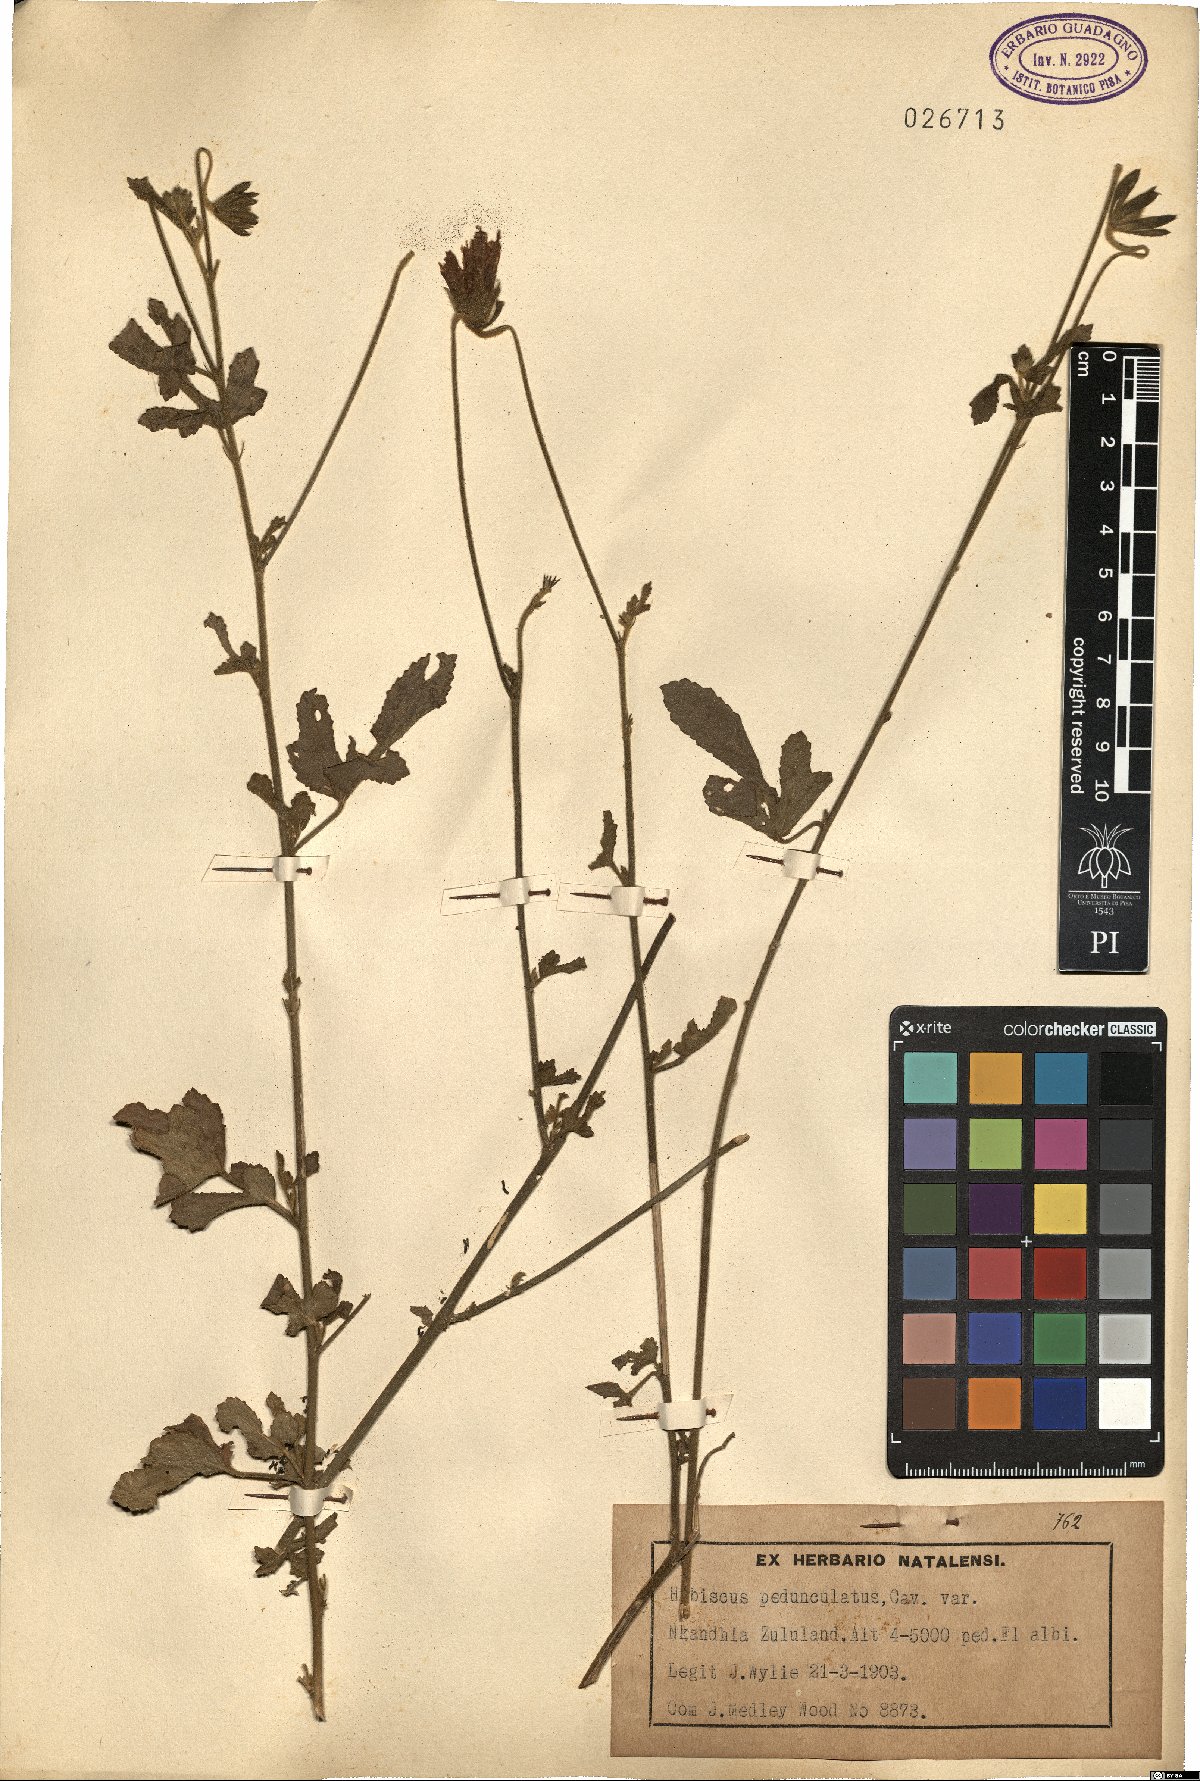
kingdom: Plantae
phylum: Tracheophyta
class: Magnoliopsida
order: Malvales
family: Malvaceae
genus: Hibiscus
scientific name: Hibiscus pedunculatus
